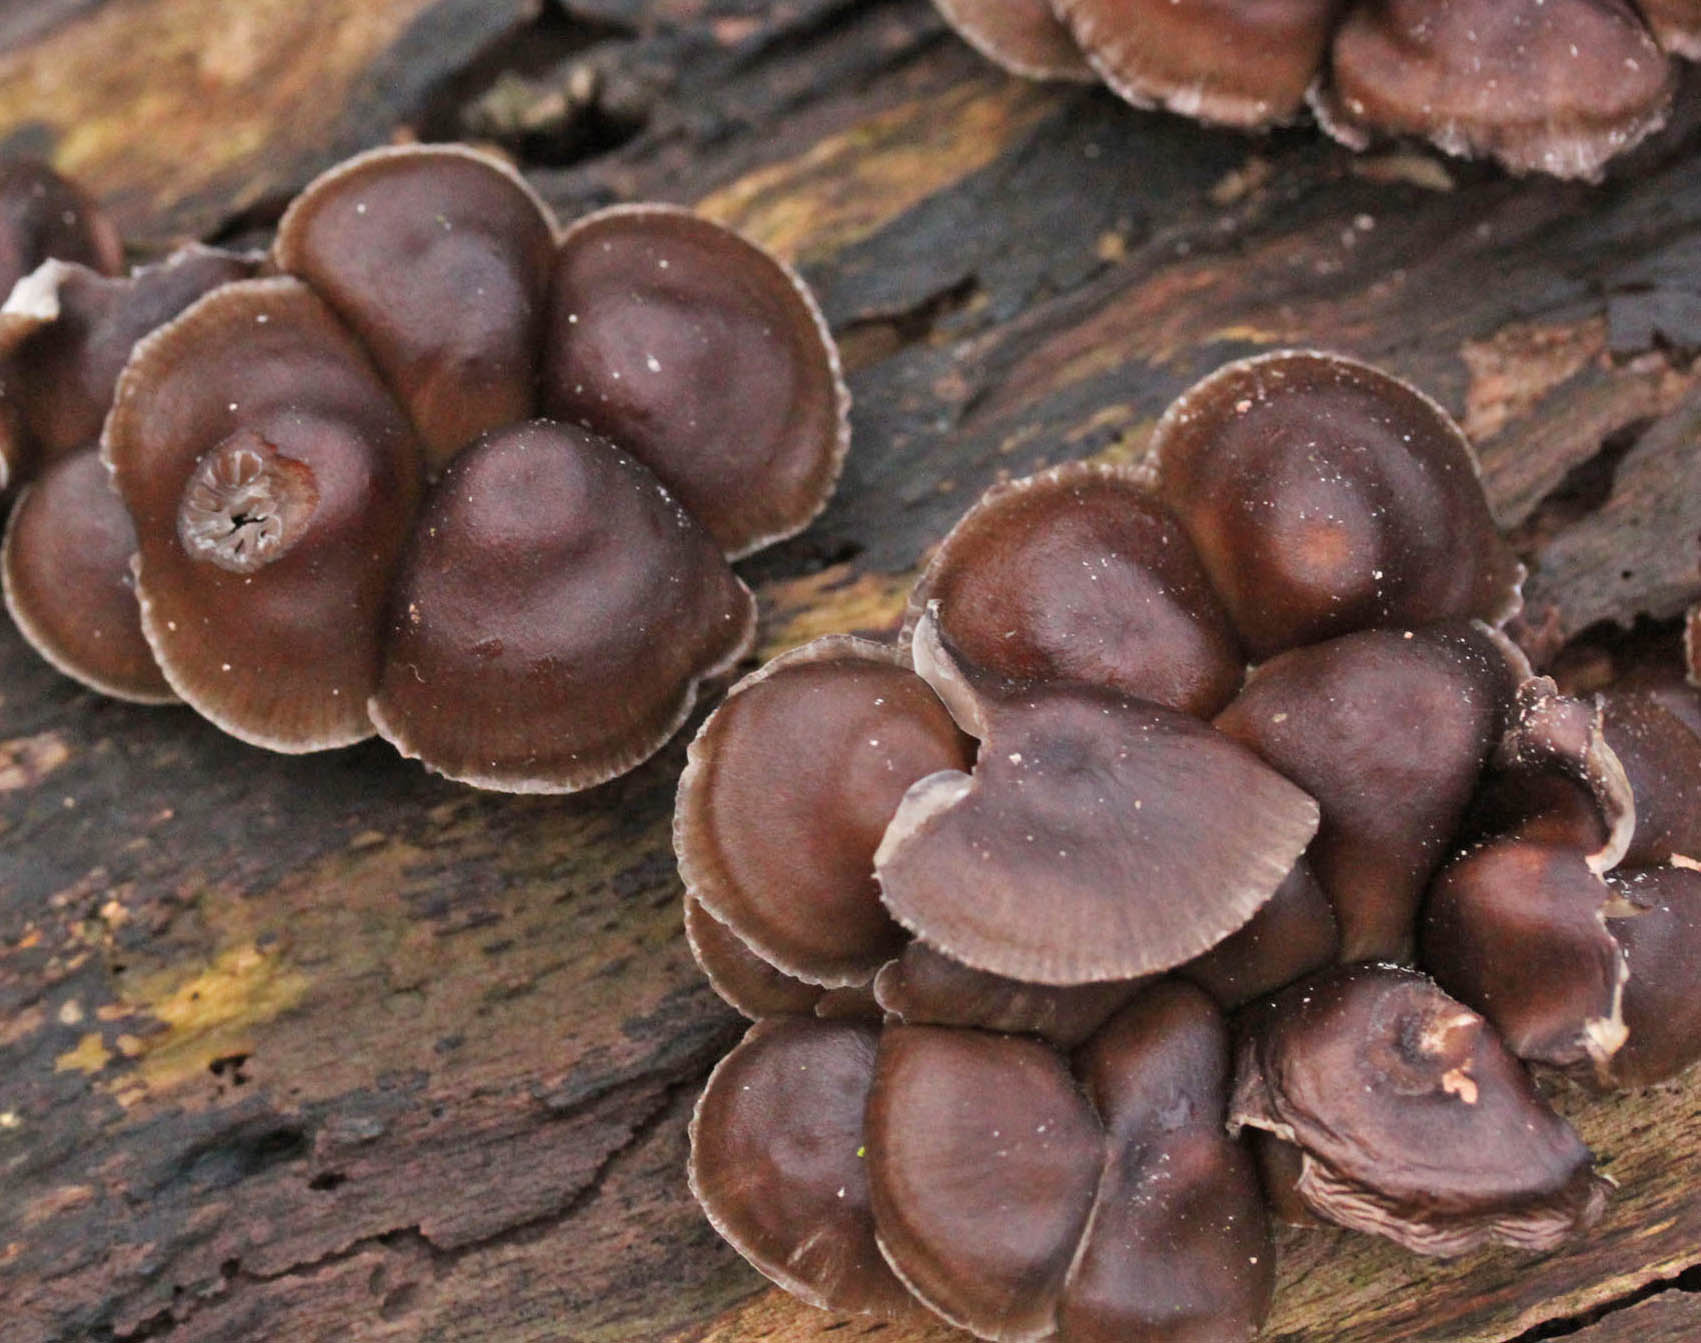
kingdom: Fungi
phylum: Basidiomycota
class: Agaricomycetes
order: Agaricales
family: Mycenaceae
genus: Mycena
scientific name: Mycena tintinnabulum
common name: vinter-huesvamp
